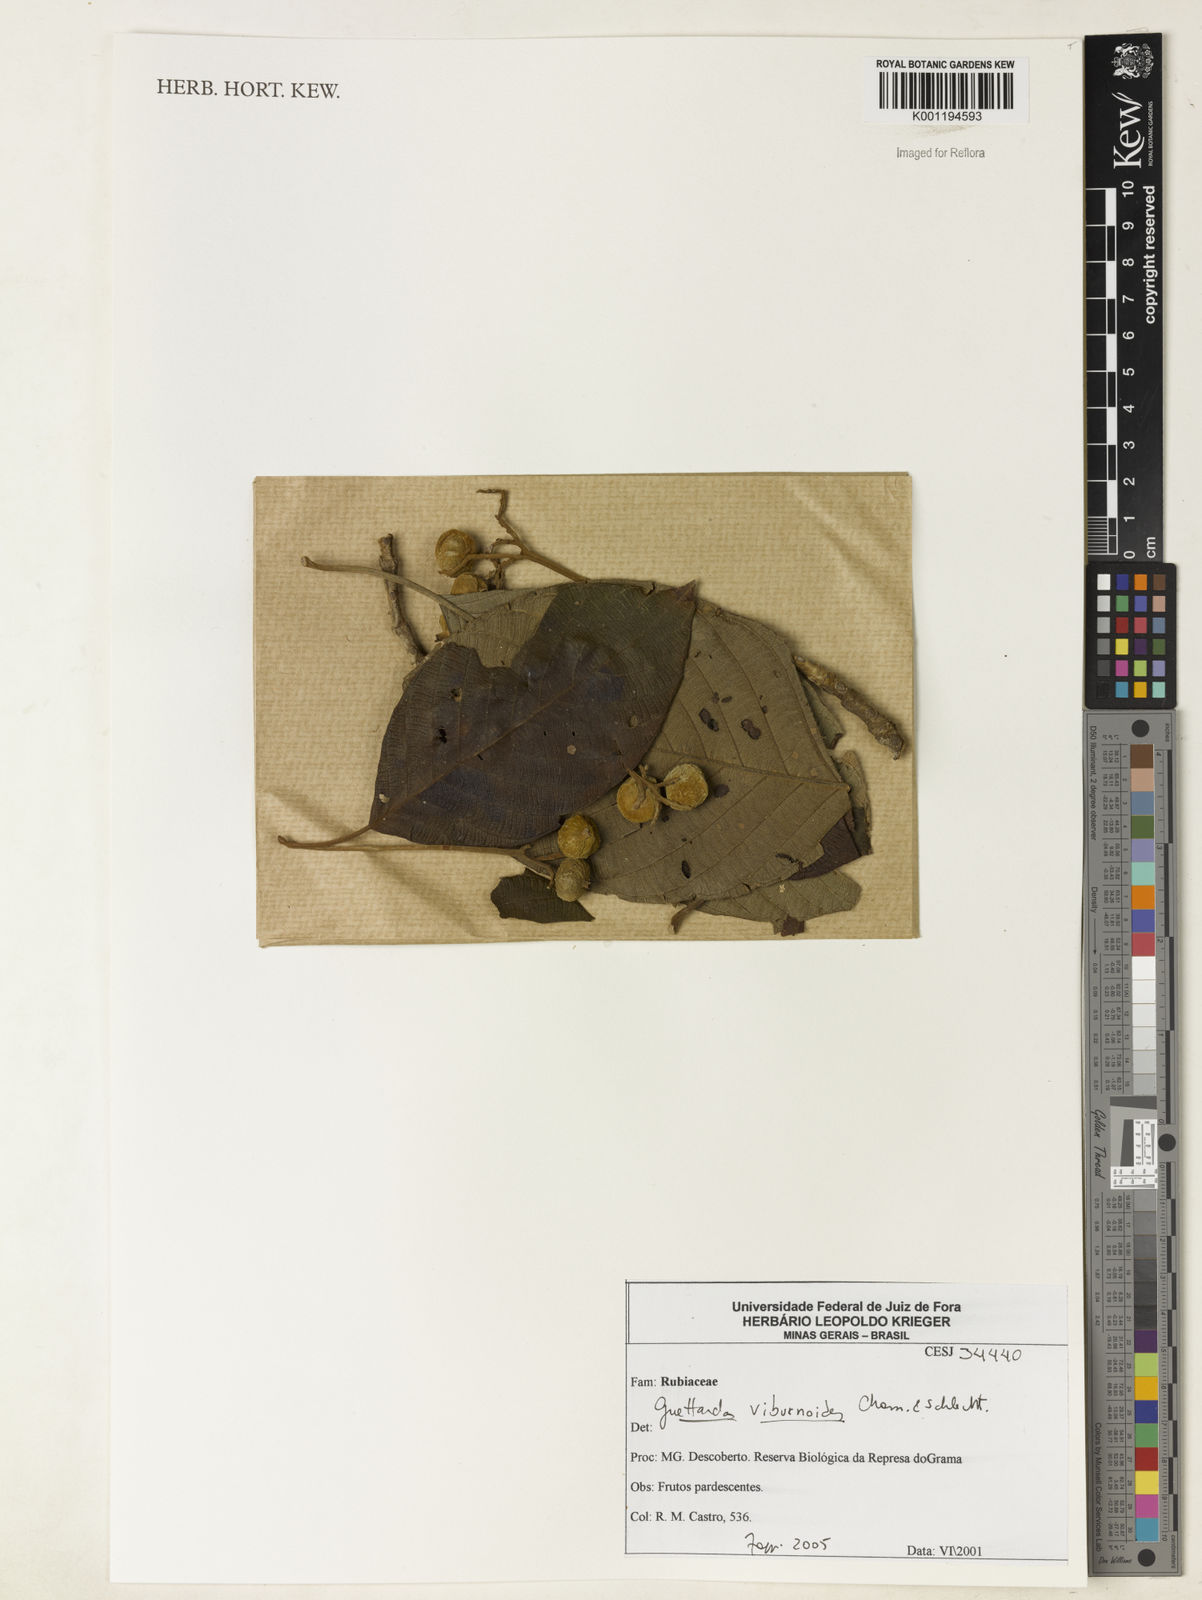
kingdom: Plantae
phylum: Tracheophyta
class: Magnoliopsida
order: Gentianales
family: Rubiaceae
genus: Guettarda
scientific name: Guettarda viburnoides
